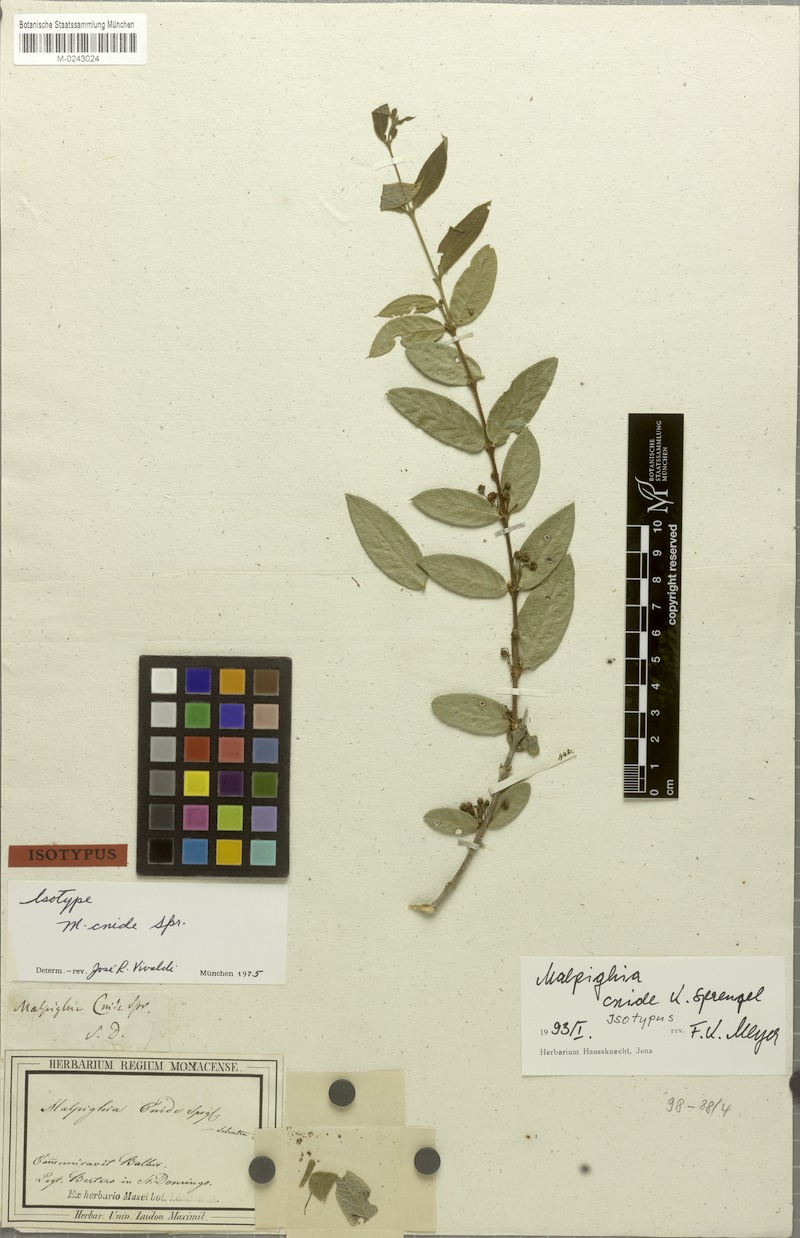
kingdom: Plantae
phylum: Tracheophyta
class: Magnoliopsida
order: Malpighiales
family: Malpighiaceae
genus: Malpighia
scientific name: Malpighia cnide
